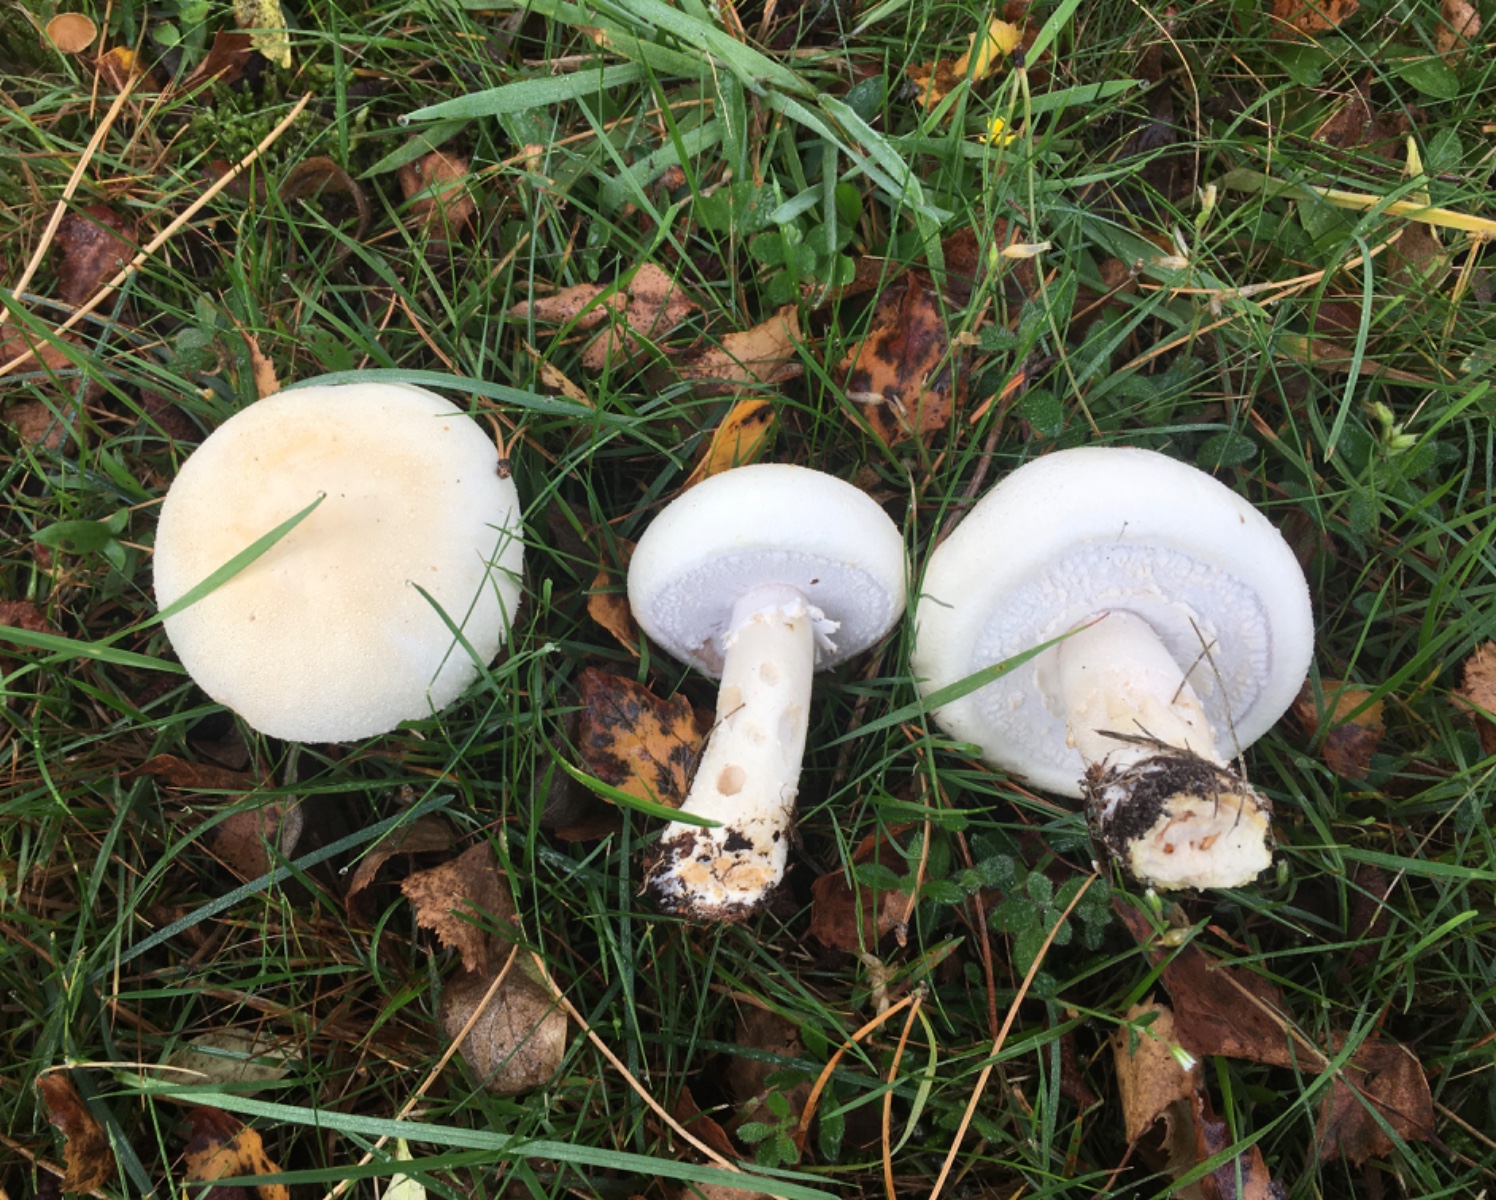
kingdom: Fungi
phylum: Basidiomycota
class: Agaricomycetes
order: Agaricales
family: Agaricaceae
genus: Agaricus
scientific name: Agaricus arvensis
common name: ager-champignon
